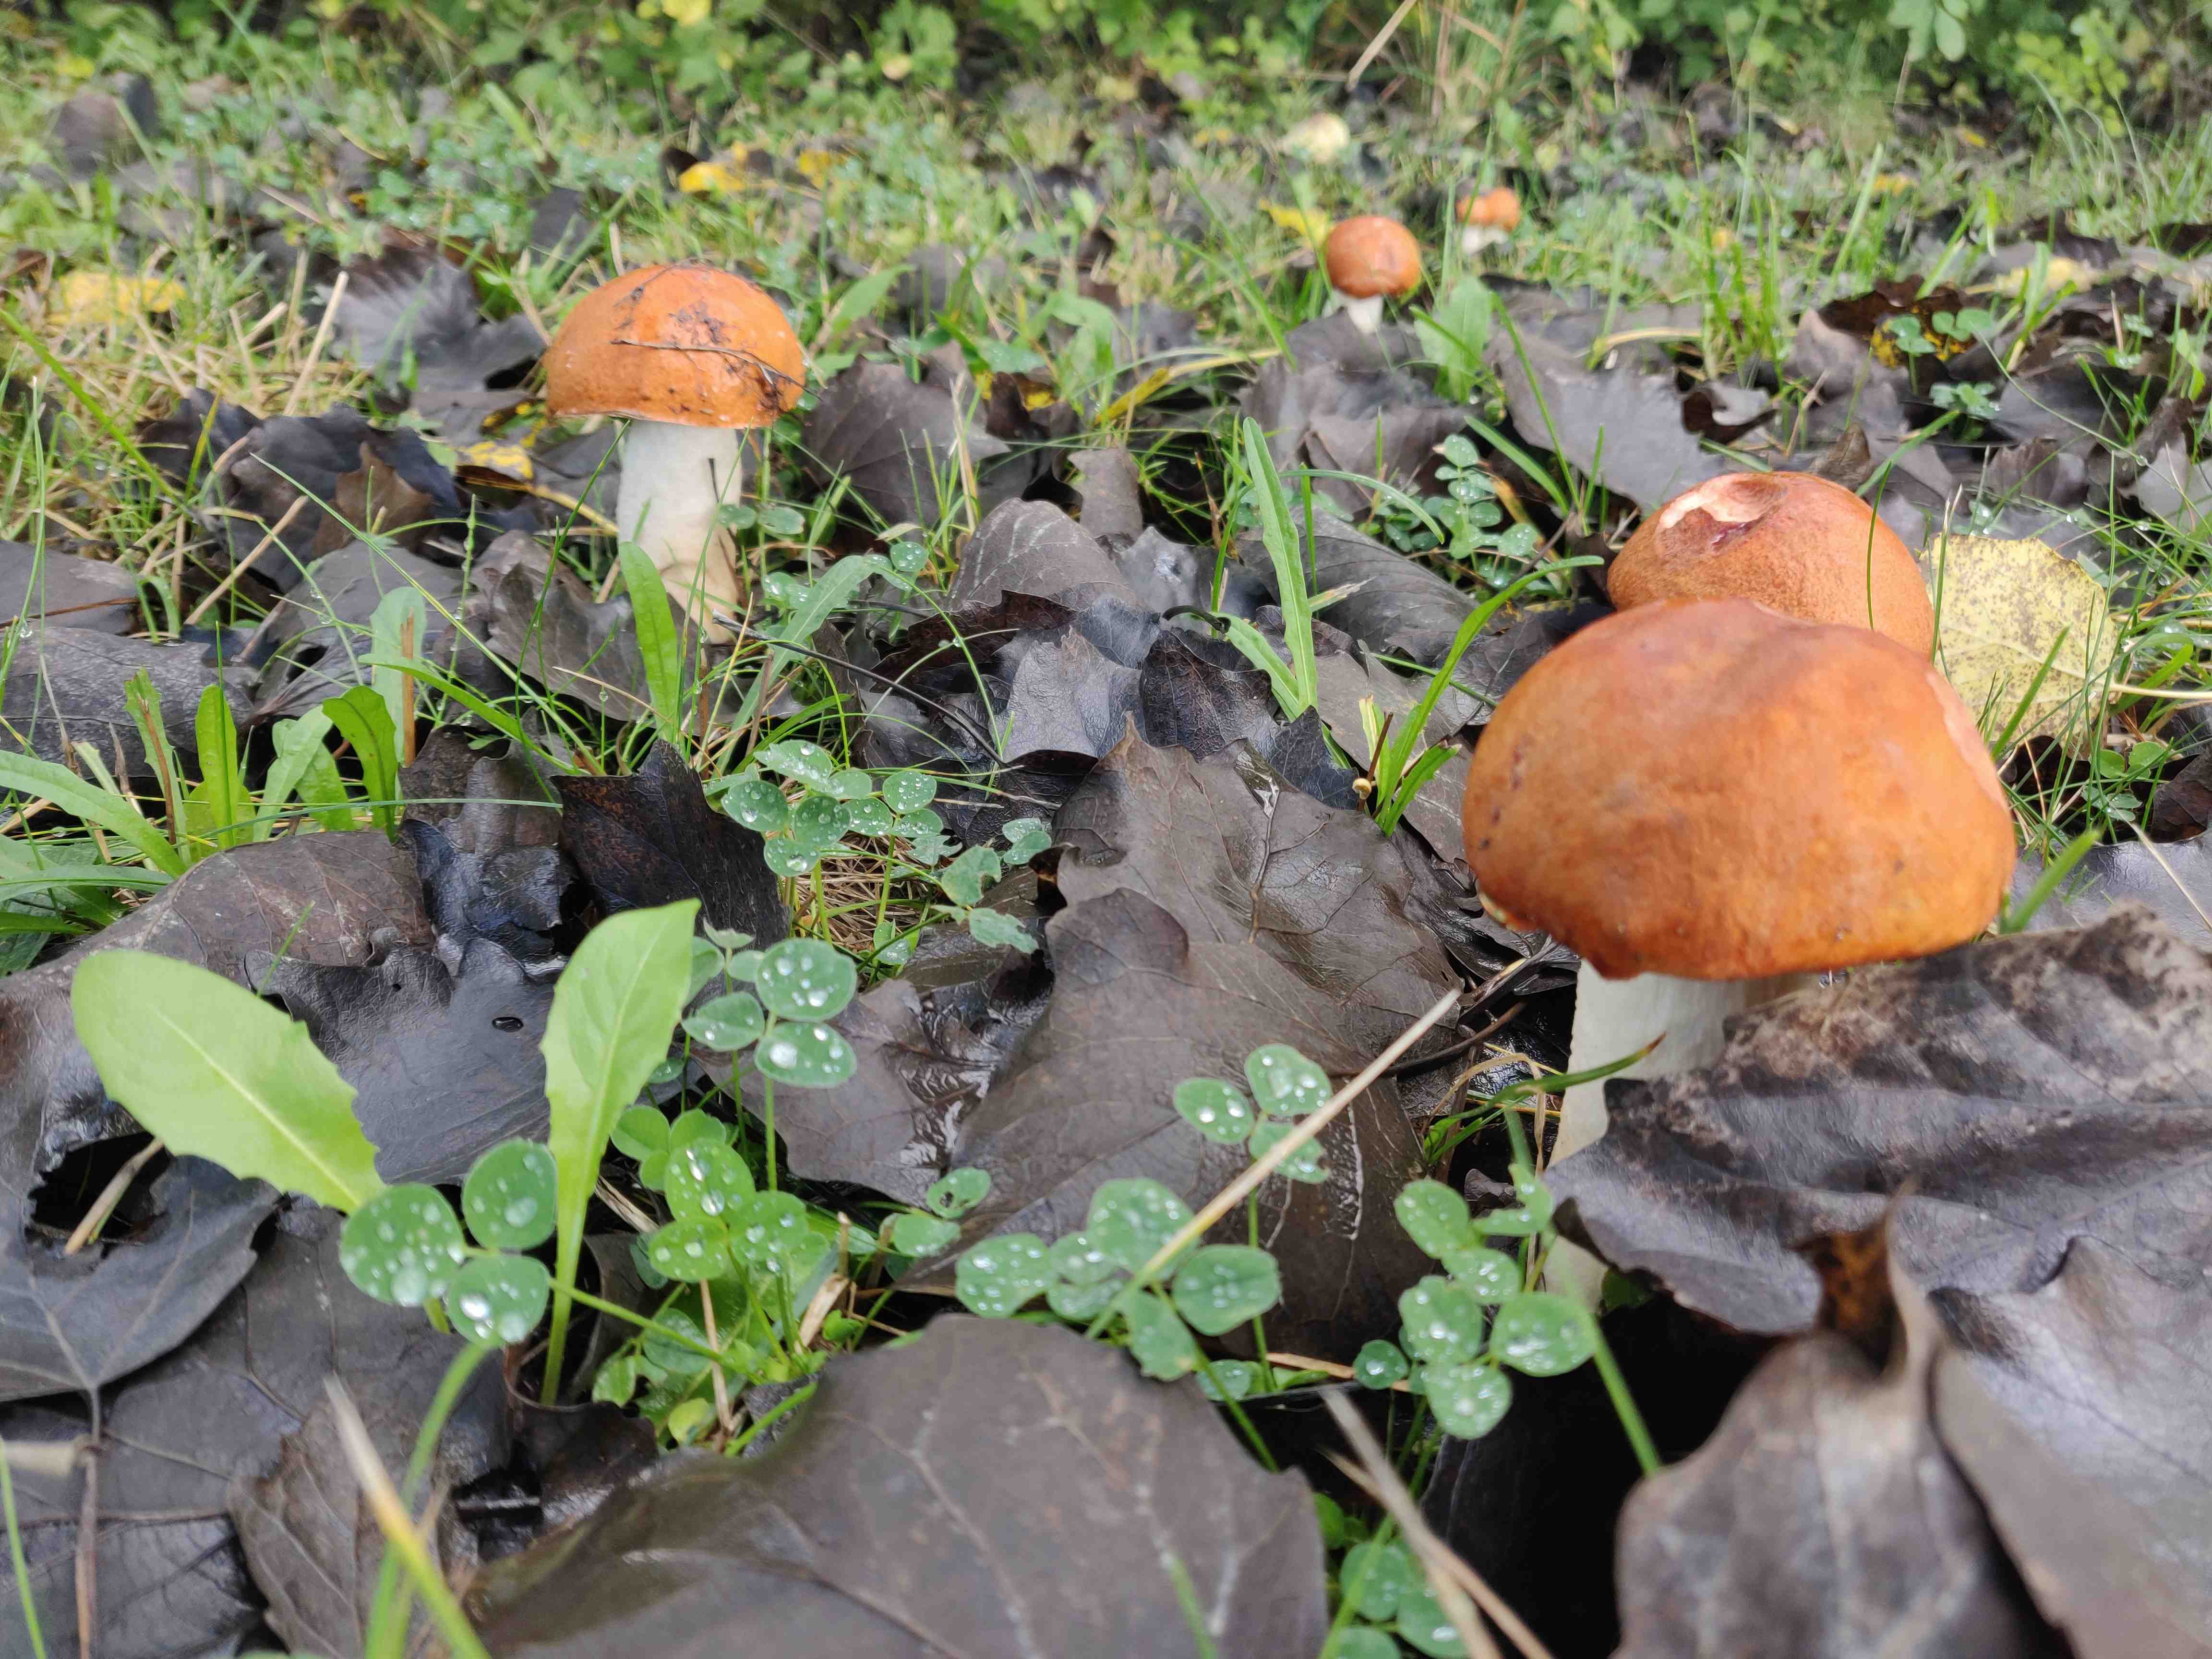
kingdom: Fungi
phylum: Basidiomycota
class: Agaricomycetes
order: Boletales
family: Boletaceae
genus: Leccinum
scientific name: Leccinum albostipitatum
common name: aspe-skælrørhat
